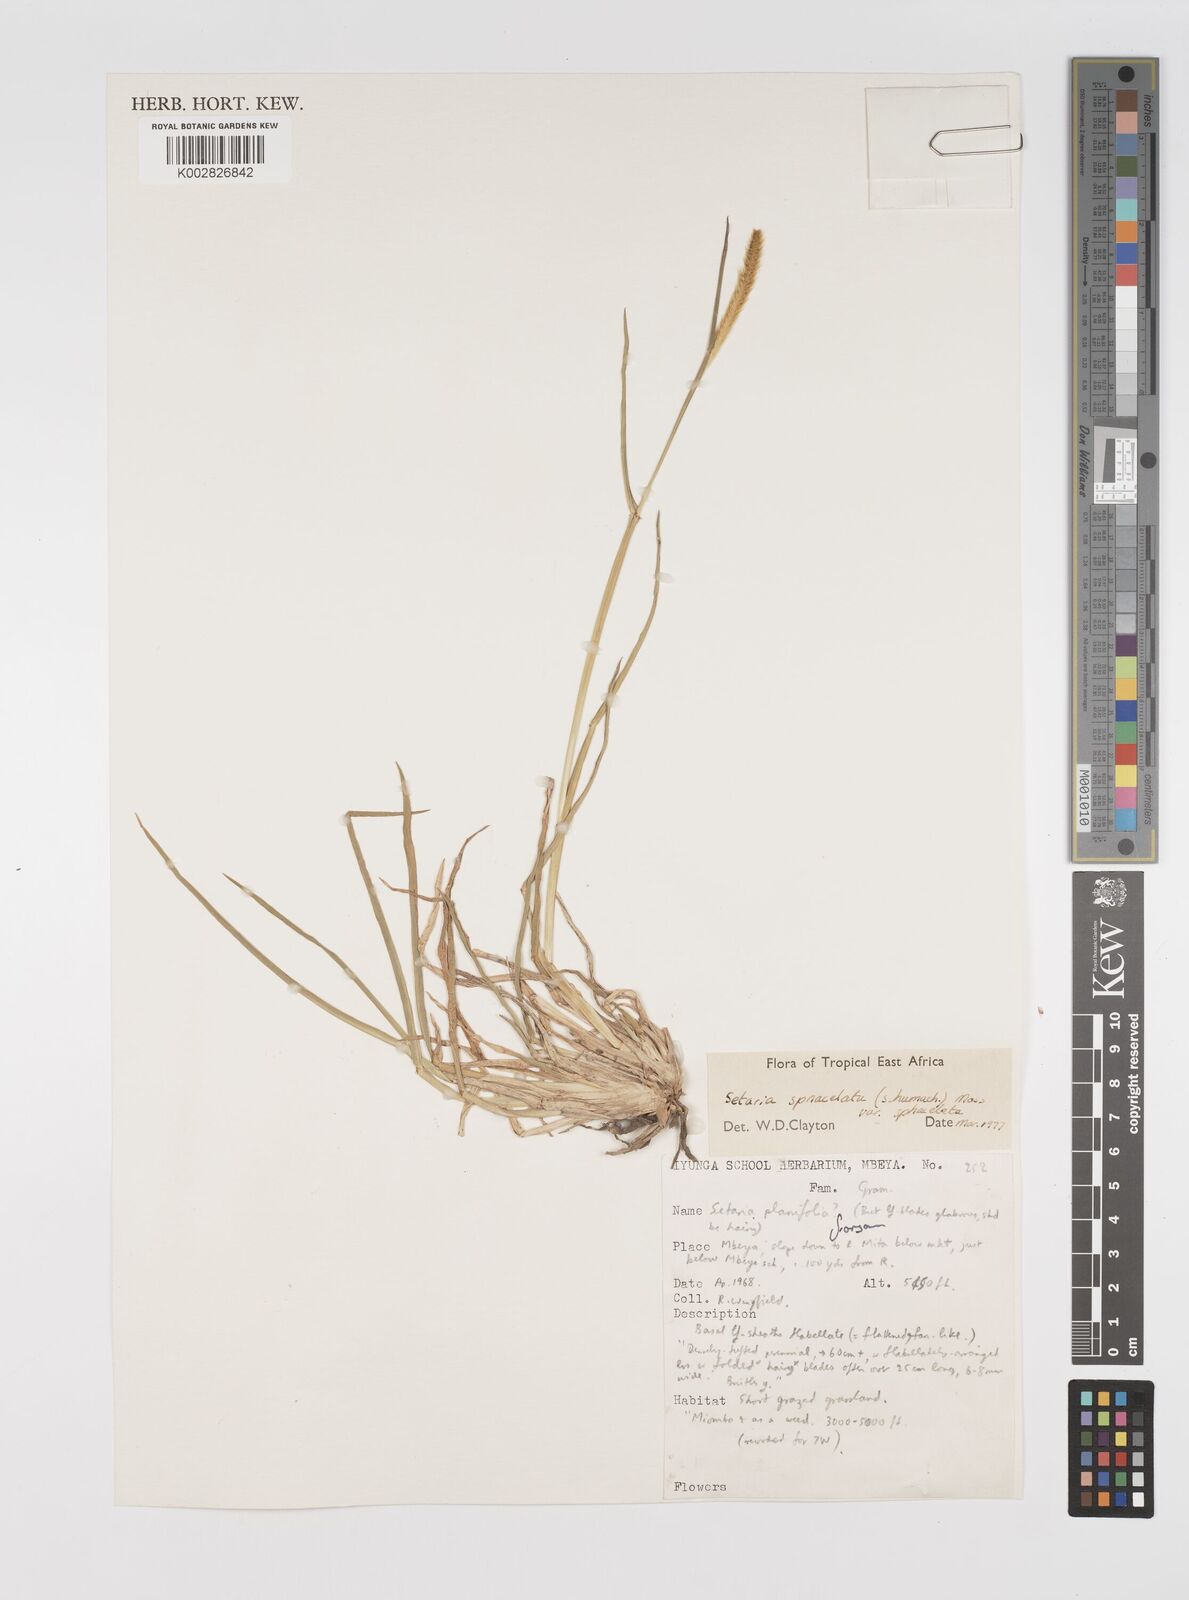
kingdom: Plantae
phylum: Tracheophyta
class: Liliopsida
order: Poales
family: Poaceae
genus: Setaria
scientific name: Setaria sphacelata
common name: African bristlegrass
